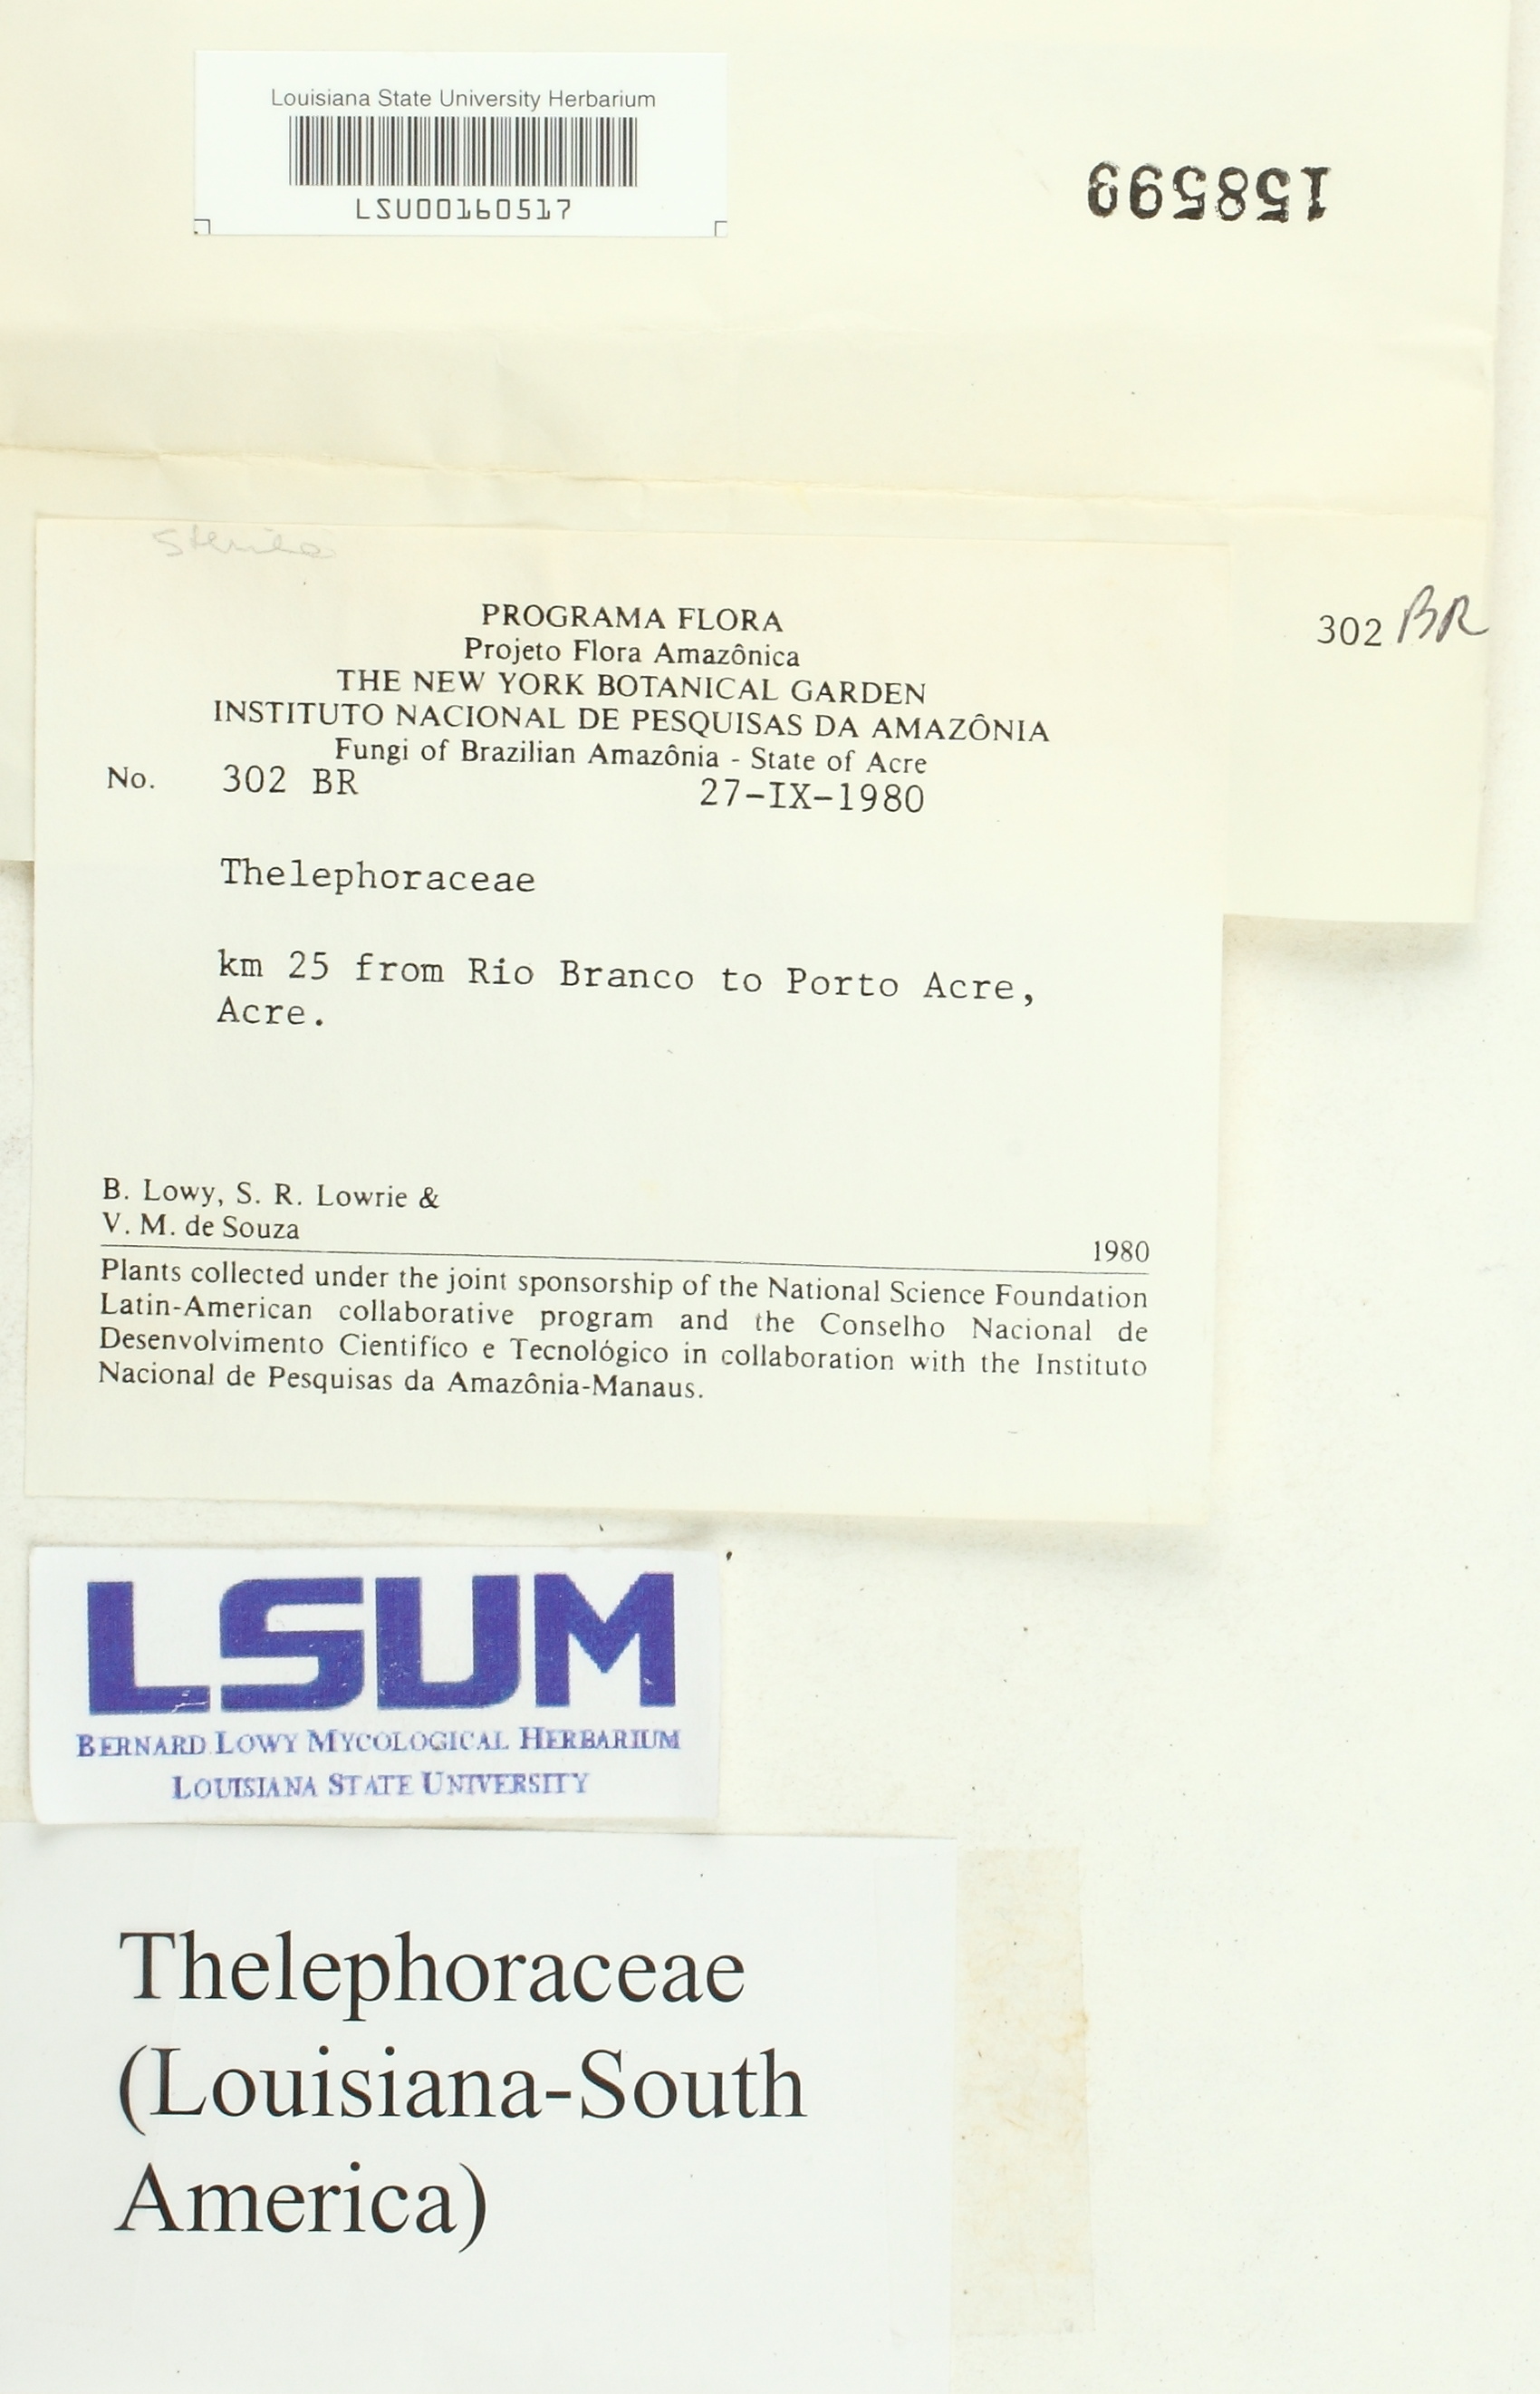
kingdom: Fungi
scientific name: Fungi
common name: Fungi
